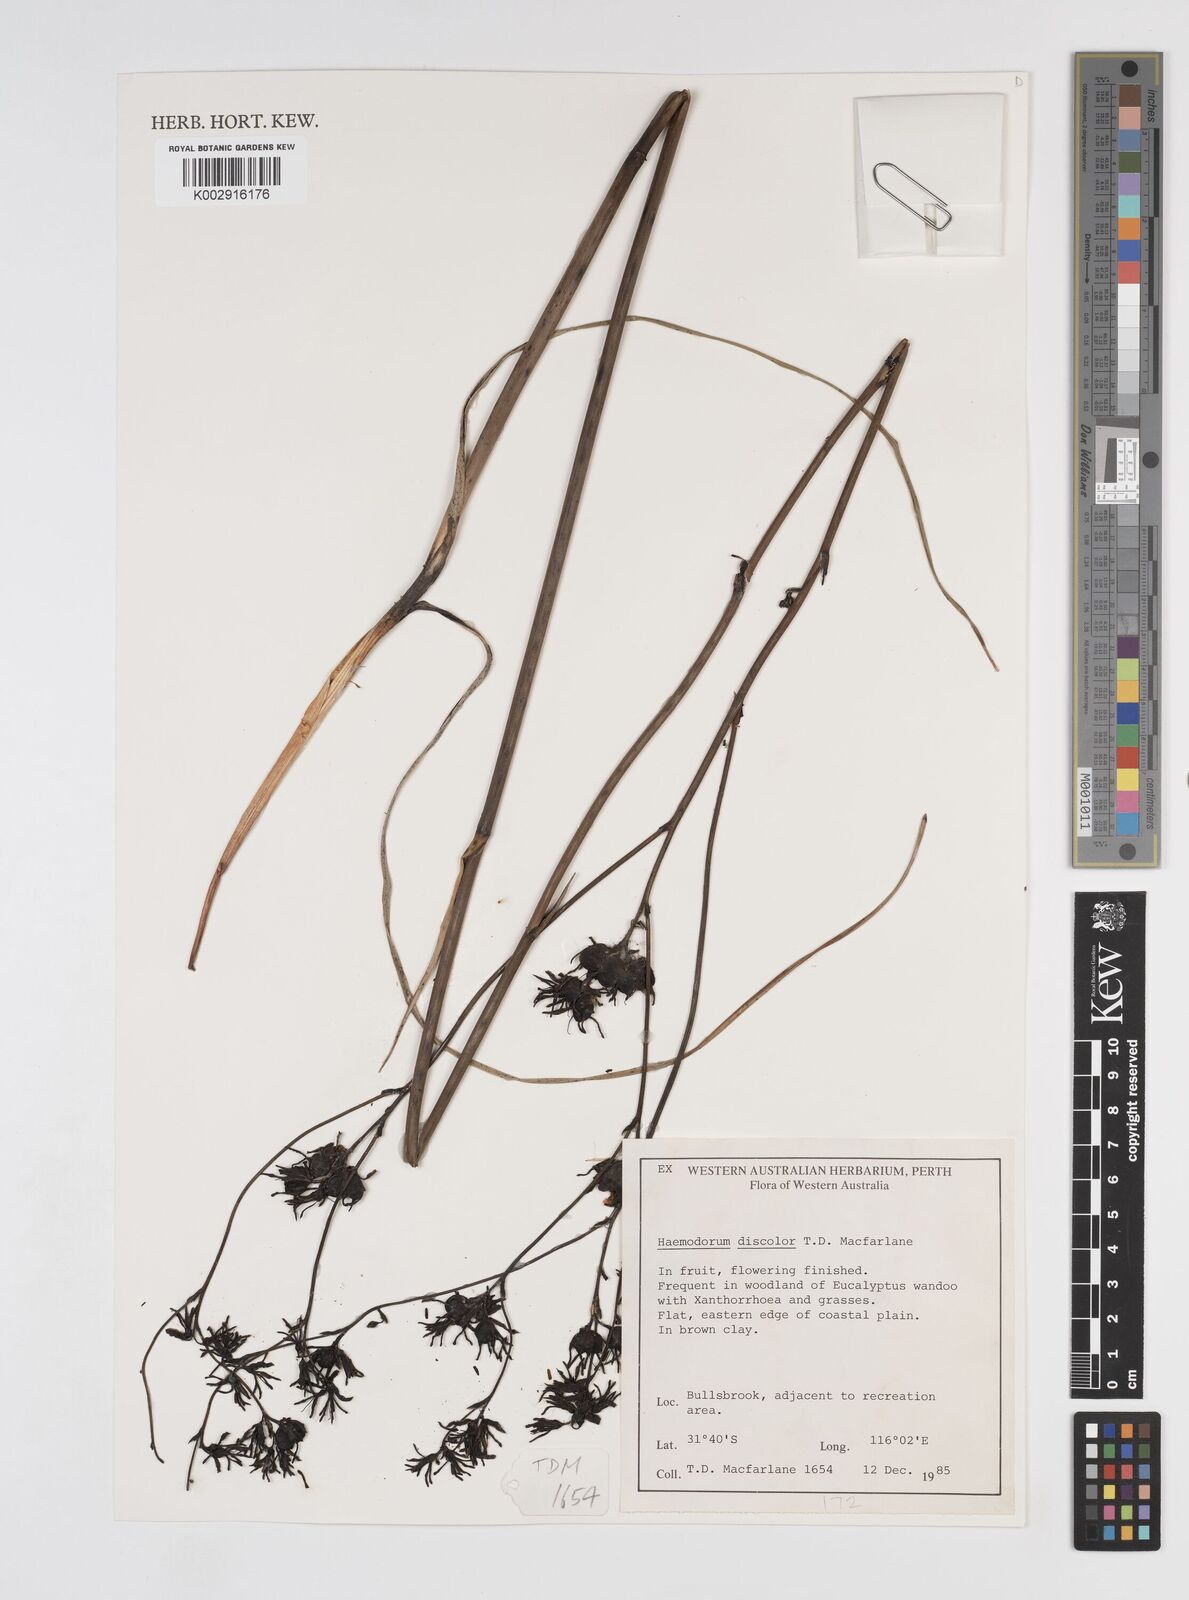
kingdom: Plantae
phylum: Tracheophyta
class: Liliopsida
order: Commelinales
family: Haemodoraceae
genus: Haemodorum
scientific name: Haemodorum discolor
